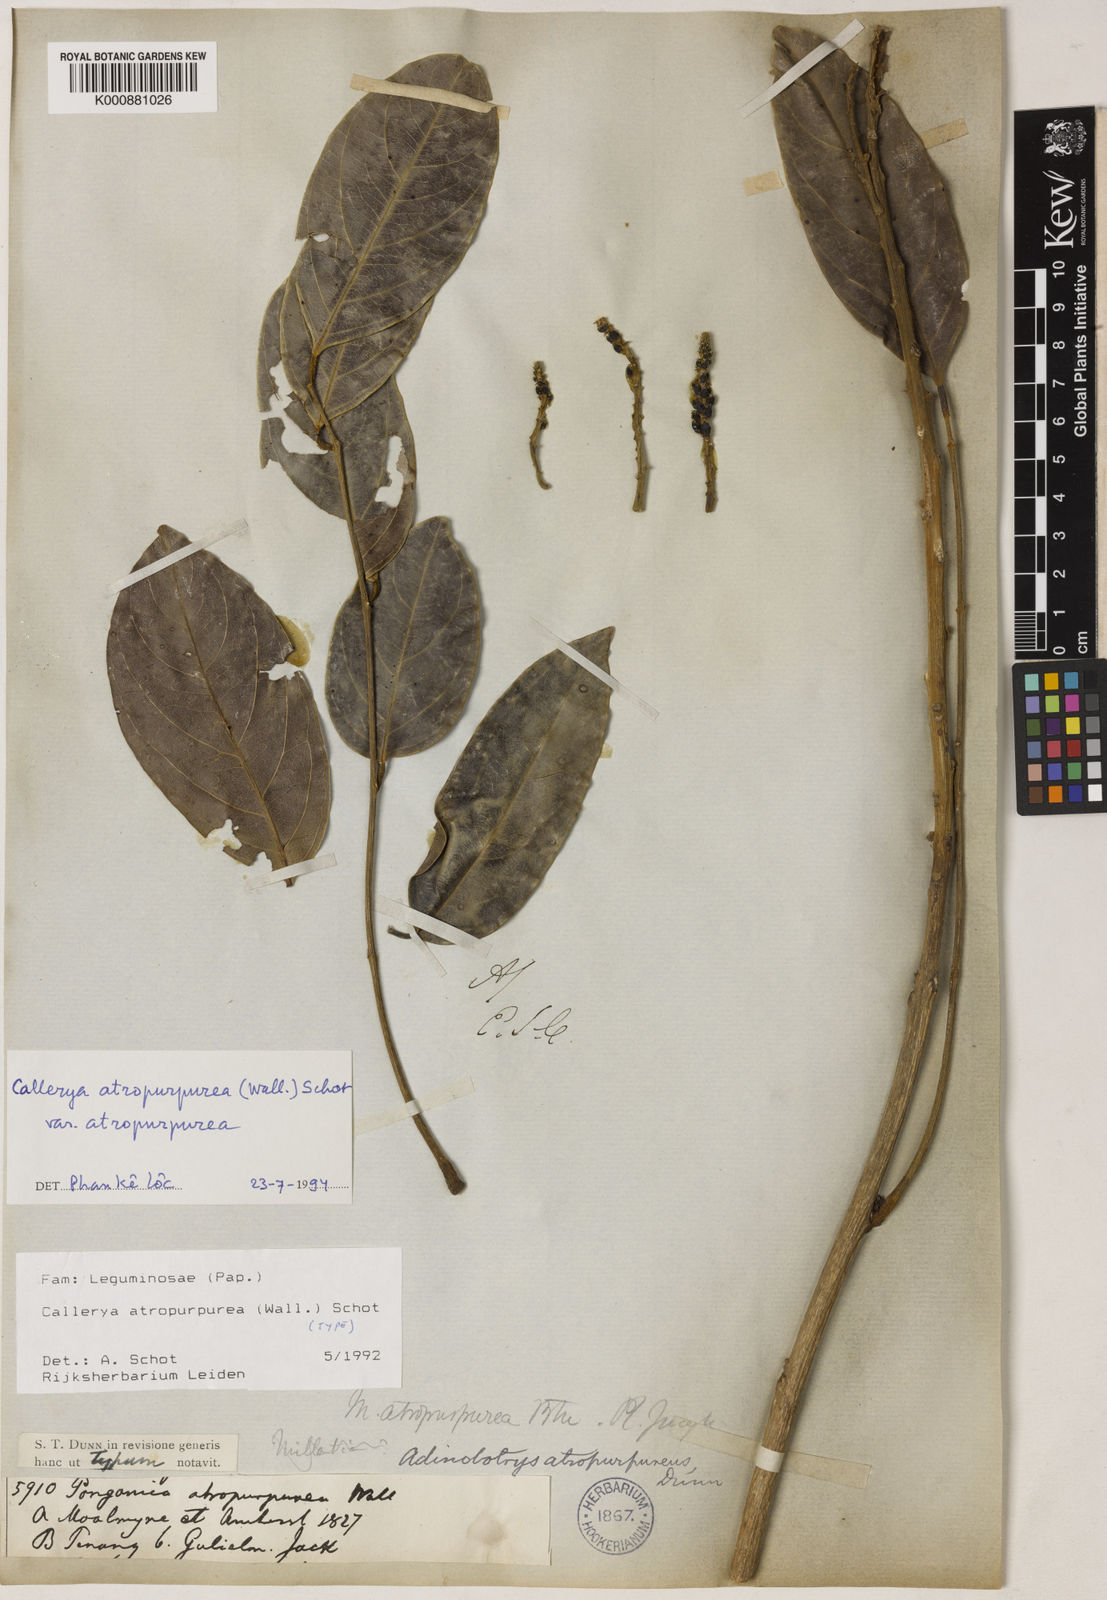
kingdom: Plantae
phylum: Tracheophyta
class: Magnoliopsida
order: Fabales
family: Fabaceae
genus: Adinobotrys
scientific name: Adinobotrys atropurpureus
